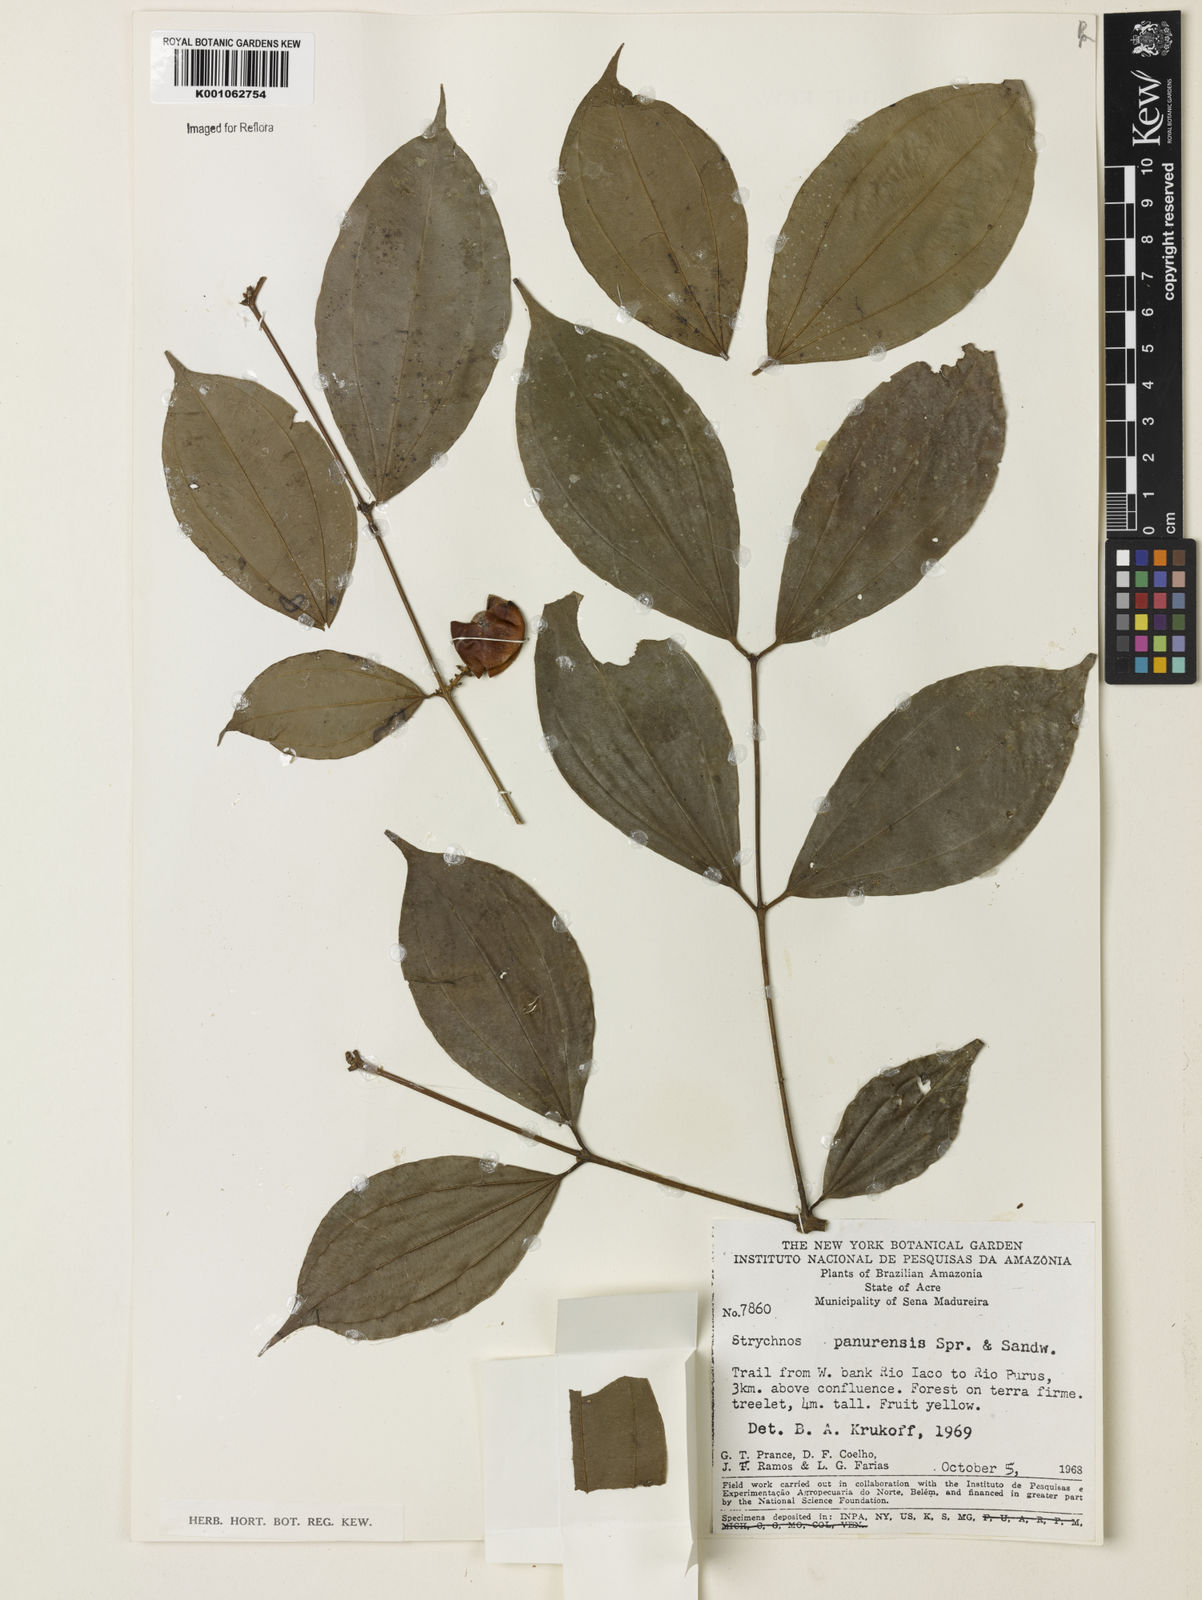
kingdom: Plantae
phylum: Tracheophyta
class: Magnoliopsida
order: Gentianales
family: Loganiaceae
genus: Strychnos
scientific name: Strychnos gubleri
